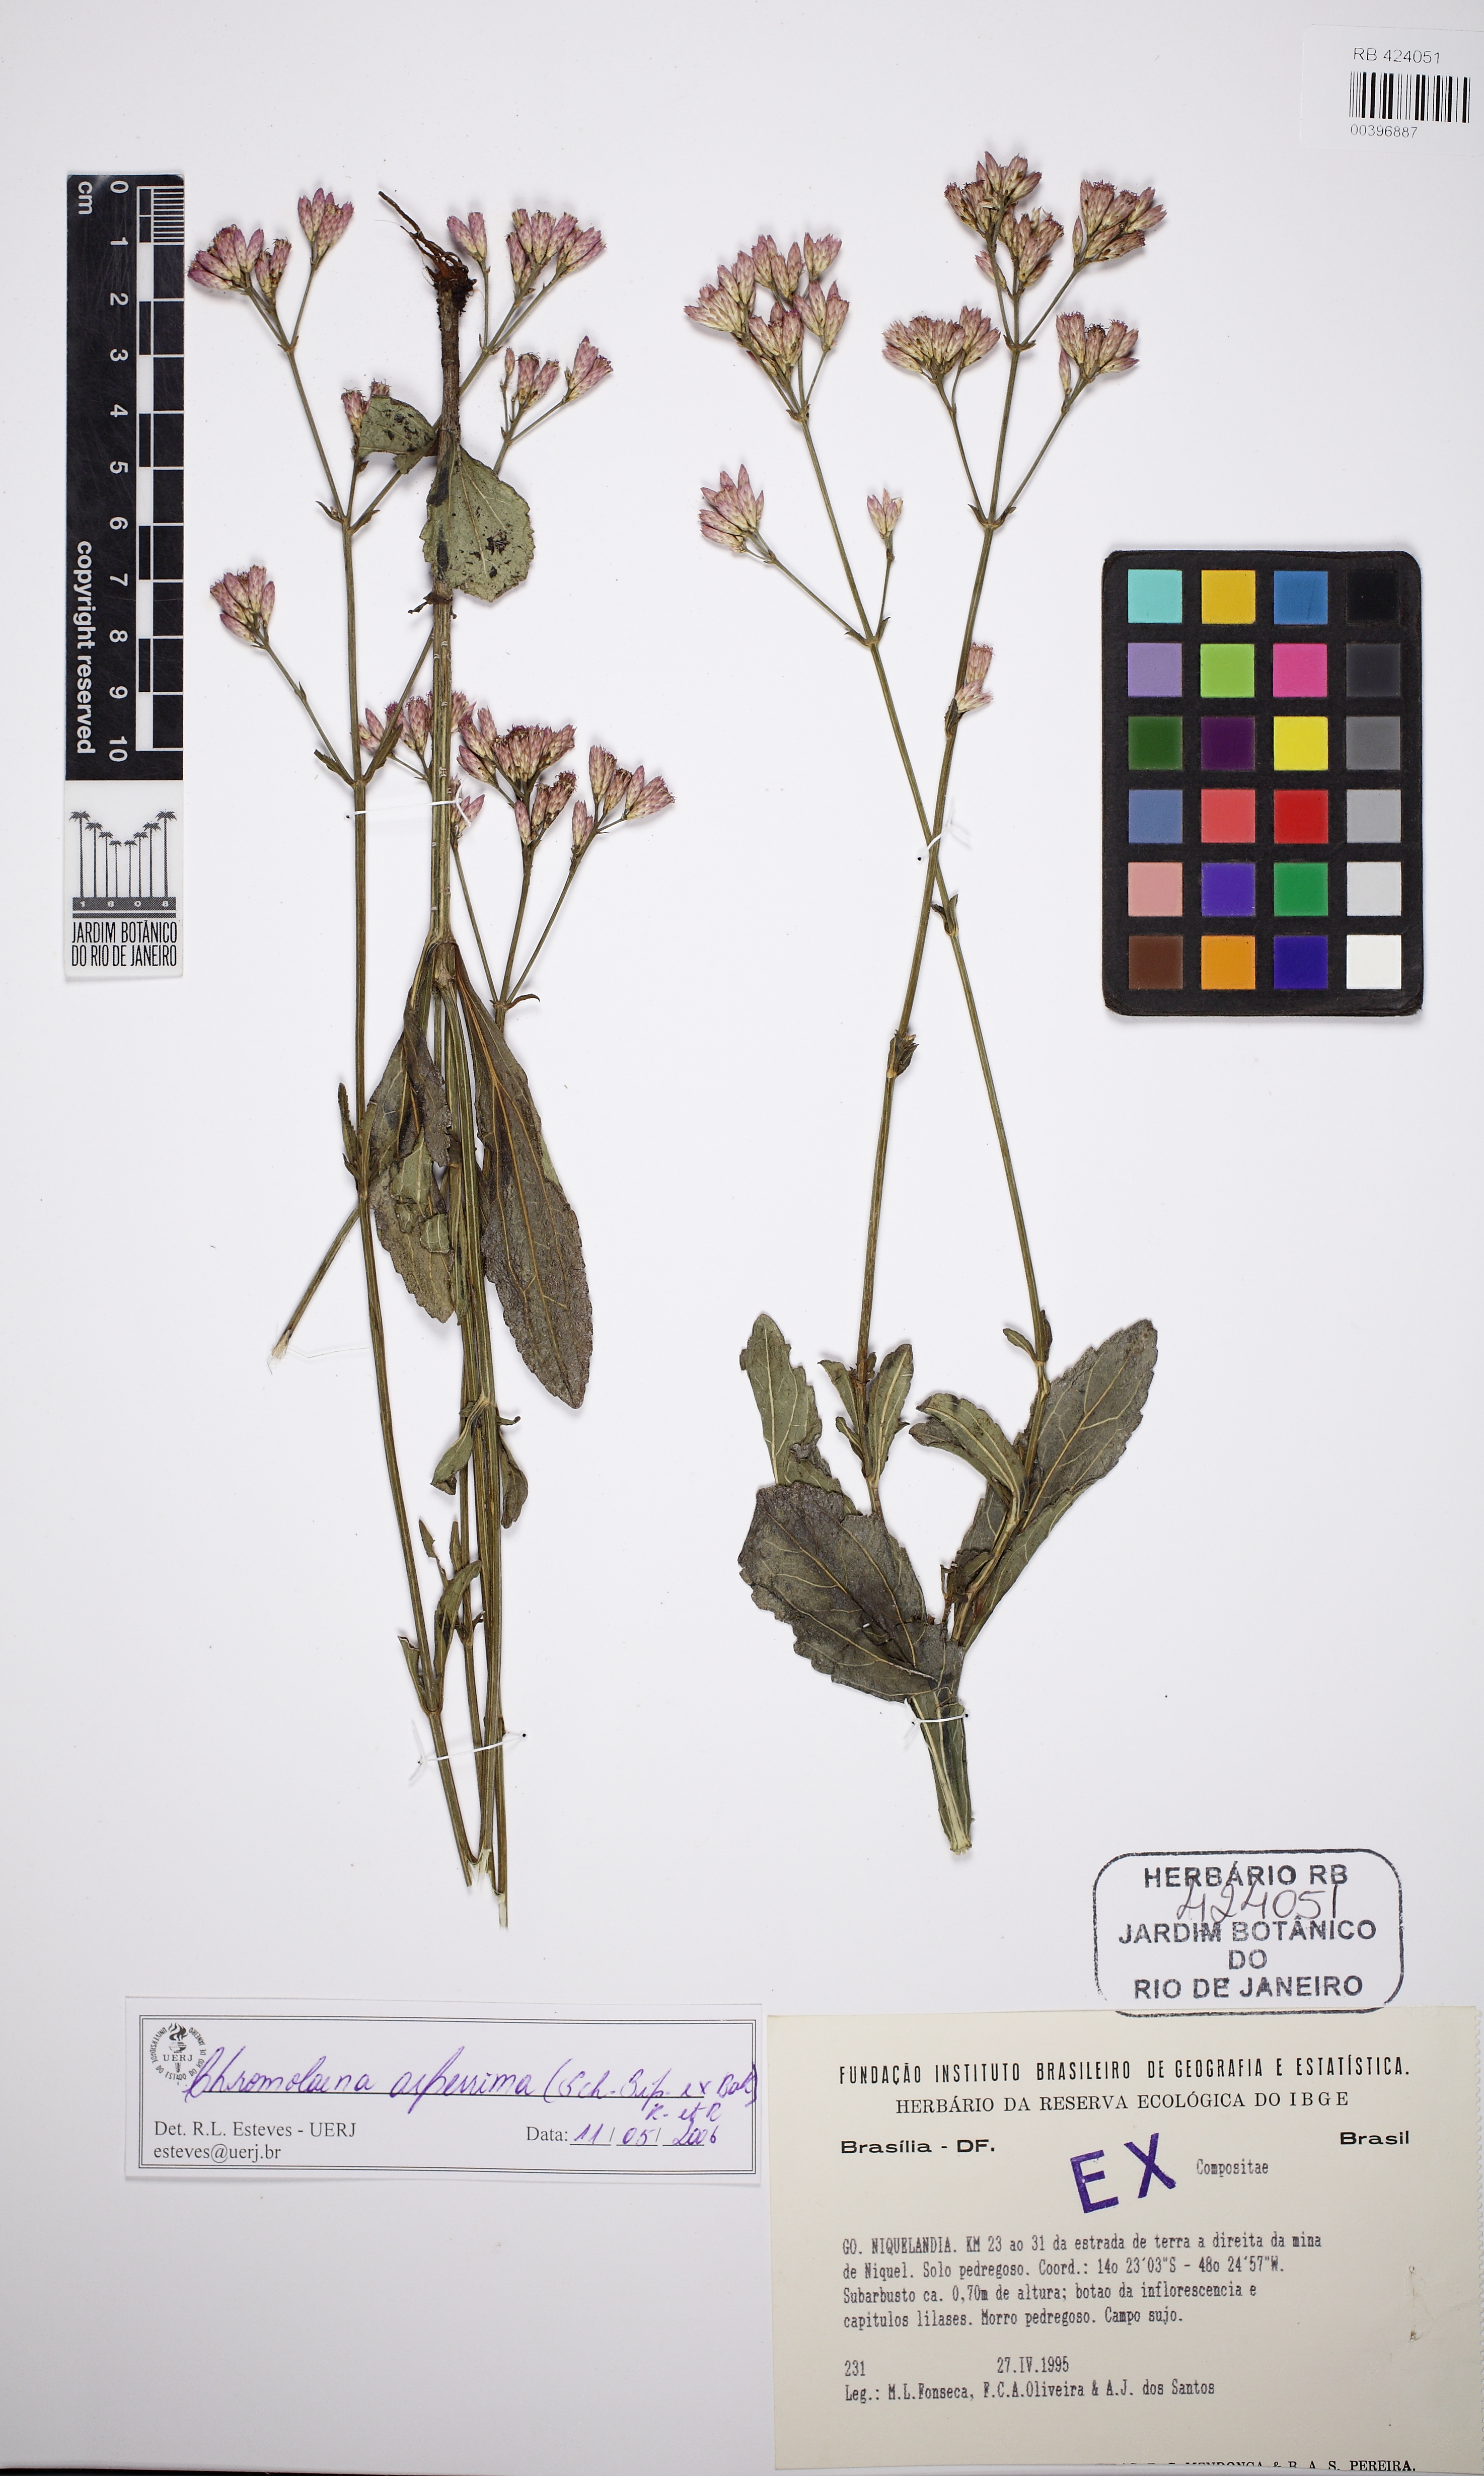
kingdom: Plantae
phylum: Tracheophyta
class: Magnoliopsida
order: Asterales
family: Asteraceae
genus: Chromolaena
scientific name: Chromolaena asperrima
